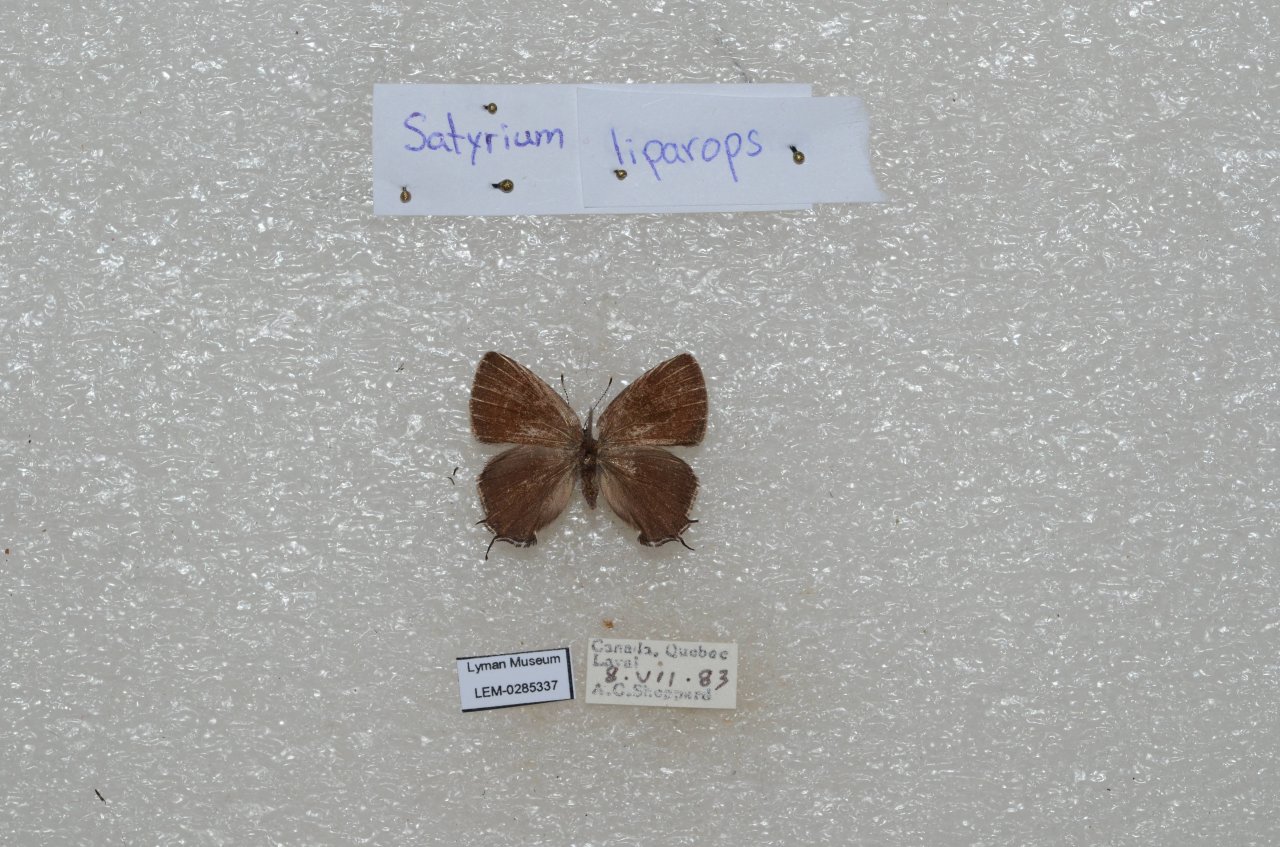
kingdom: Animalia
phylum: Arthropoda
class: Insecta
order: Lepidoptera
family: Lycaenidae
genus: Satyrium
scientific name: Satyrium liparops
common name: Striped Hairstreak
